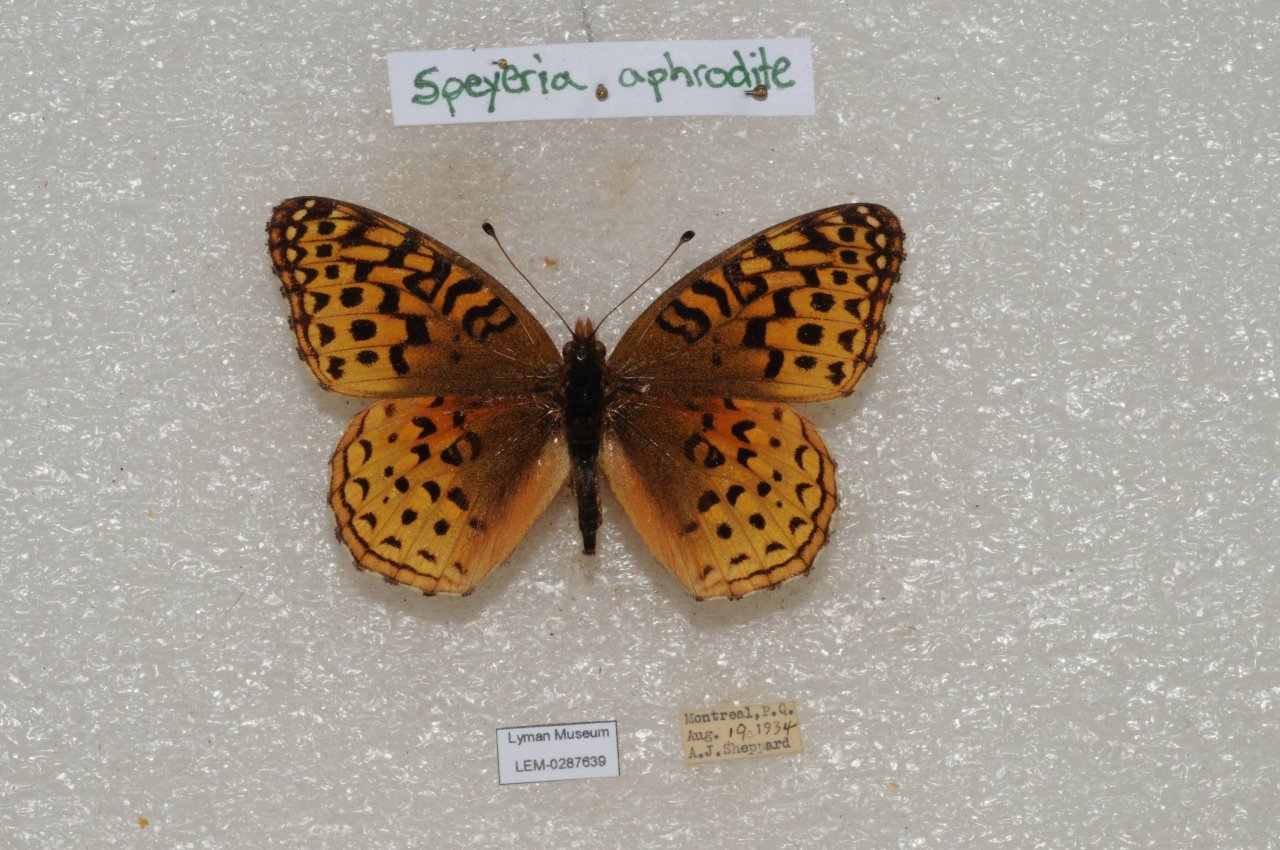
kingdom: Animalia
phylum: Arthropoda
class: Insecta
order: Lepidoptera
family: Nymphalidae
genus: Speyeria
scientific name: Speyeria aphrodite
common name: Aphrodite Fritillary
